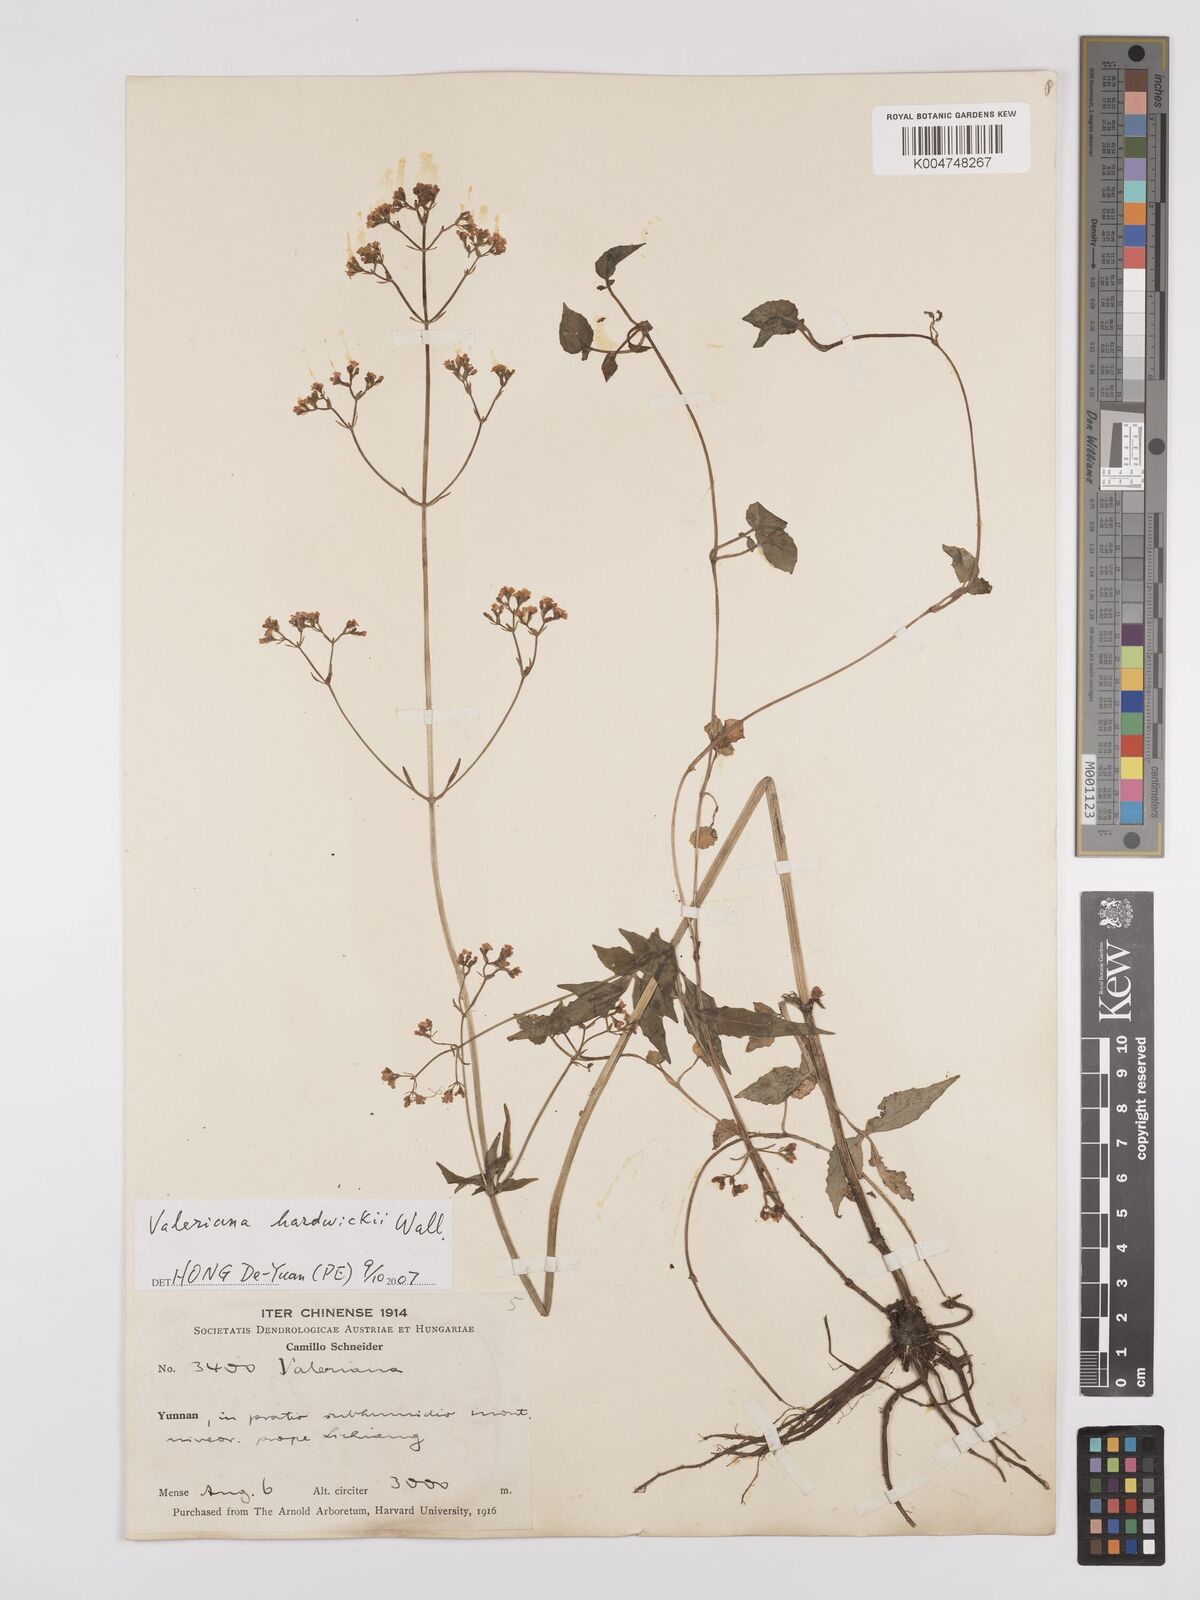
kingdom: Plantae
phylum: Tracheophyta
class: Magnoliopsida
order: Dipsacales
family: Caprifoliaceae
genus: Valeriana
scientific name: Valeriana hardwickei
